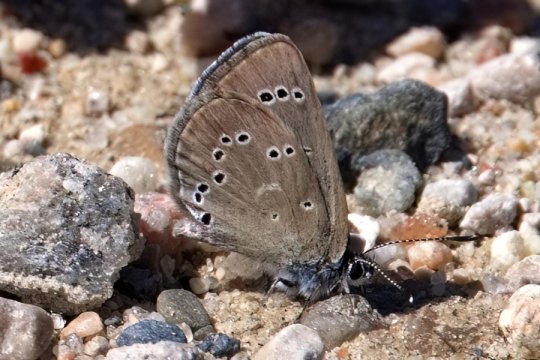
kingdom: Animalia
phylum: Arthropoda
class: Insecta
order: Lepidoptera
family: Lycaenidae
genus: Glaucopsyche
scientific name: Glaucopsyche lygdamus
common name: Silvery Blue
